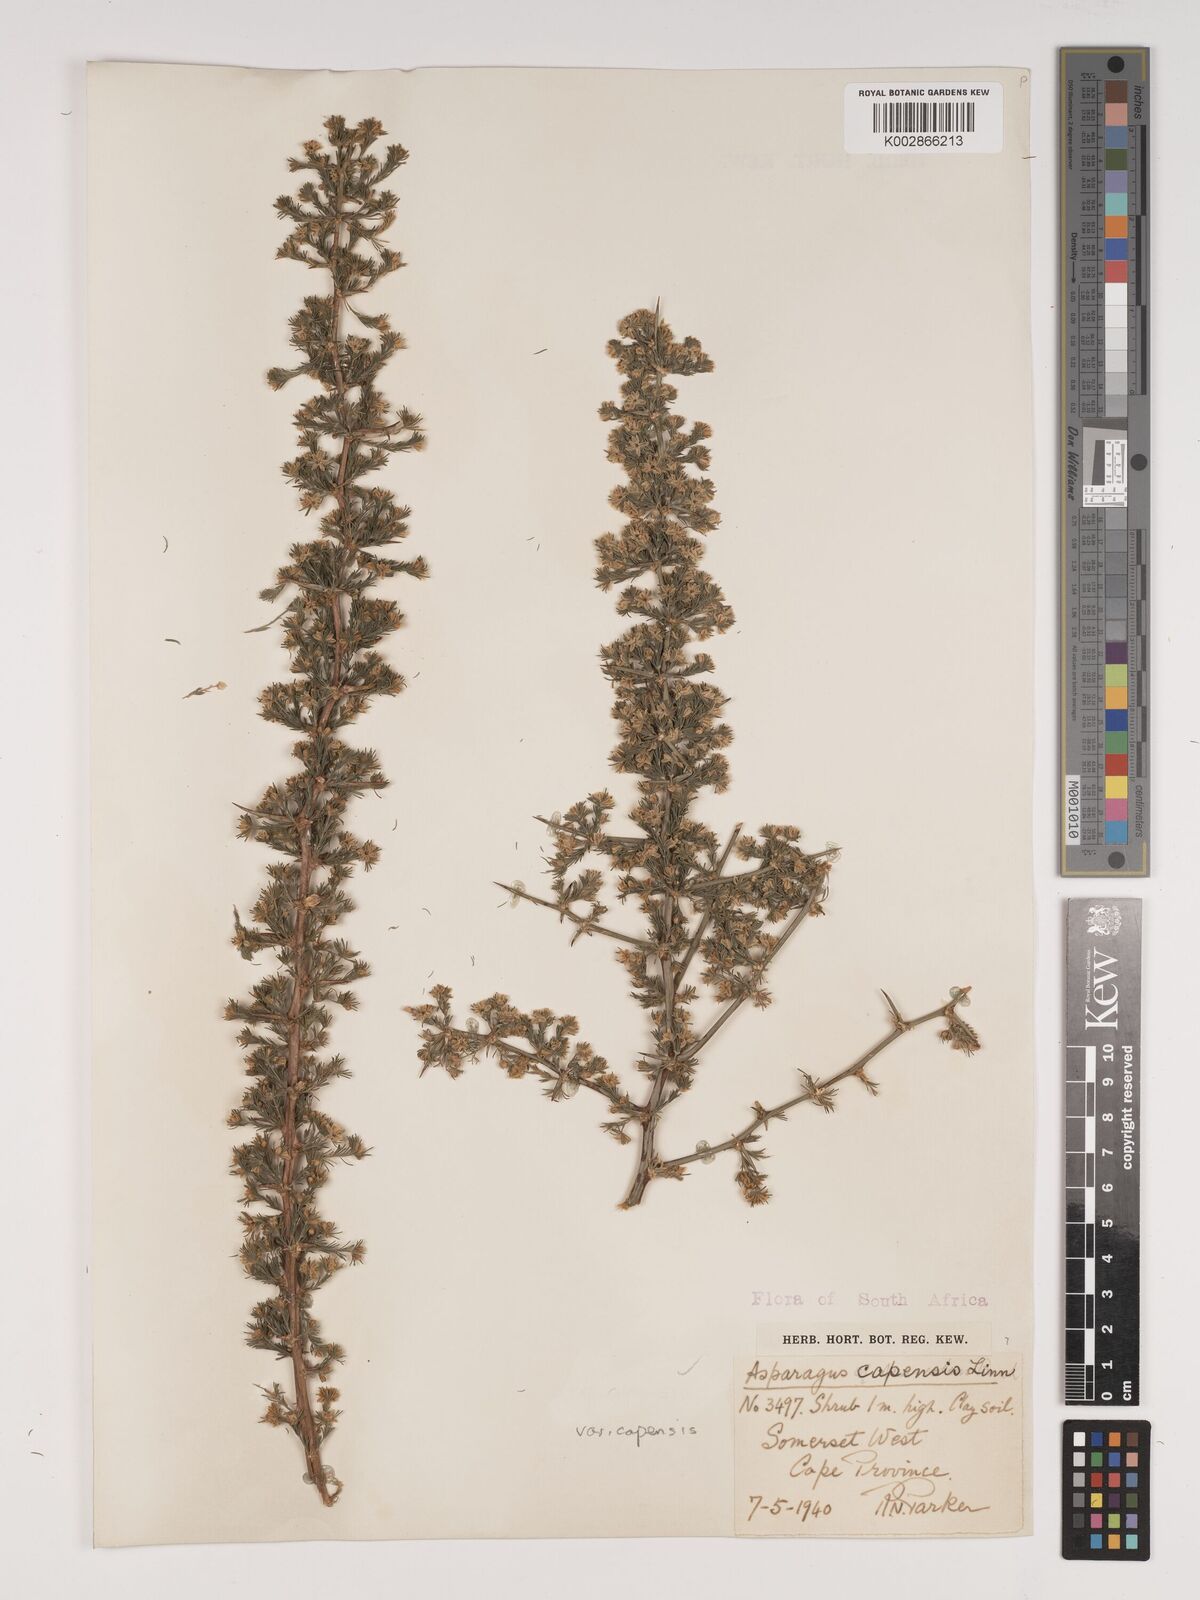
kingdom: Plantae
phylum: Tracheophyta
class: Liliopsida
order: Asparagales
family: Asparagaceae
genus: Asparagus
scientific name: Asparagus capensis
